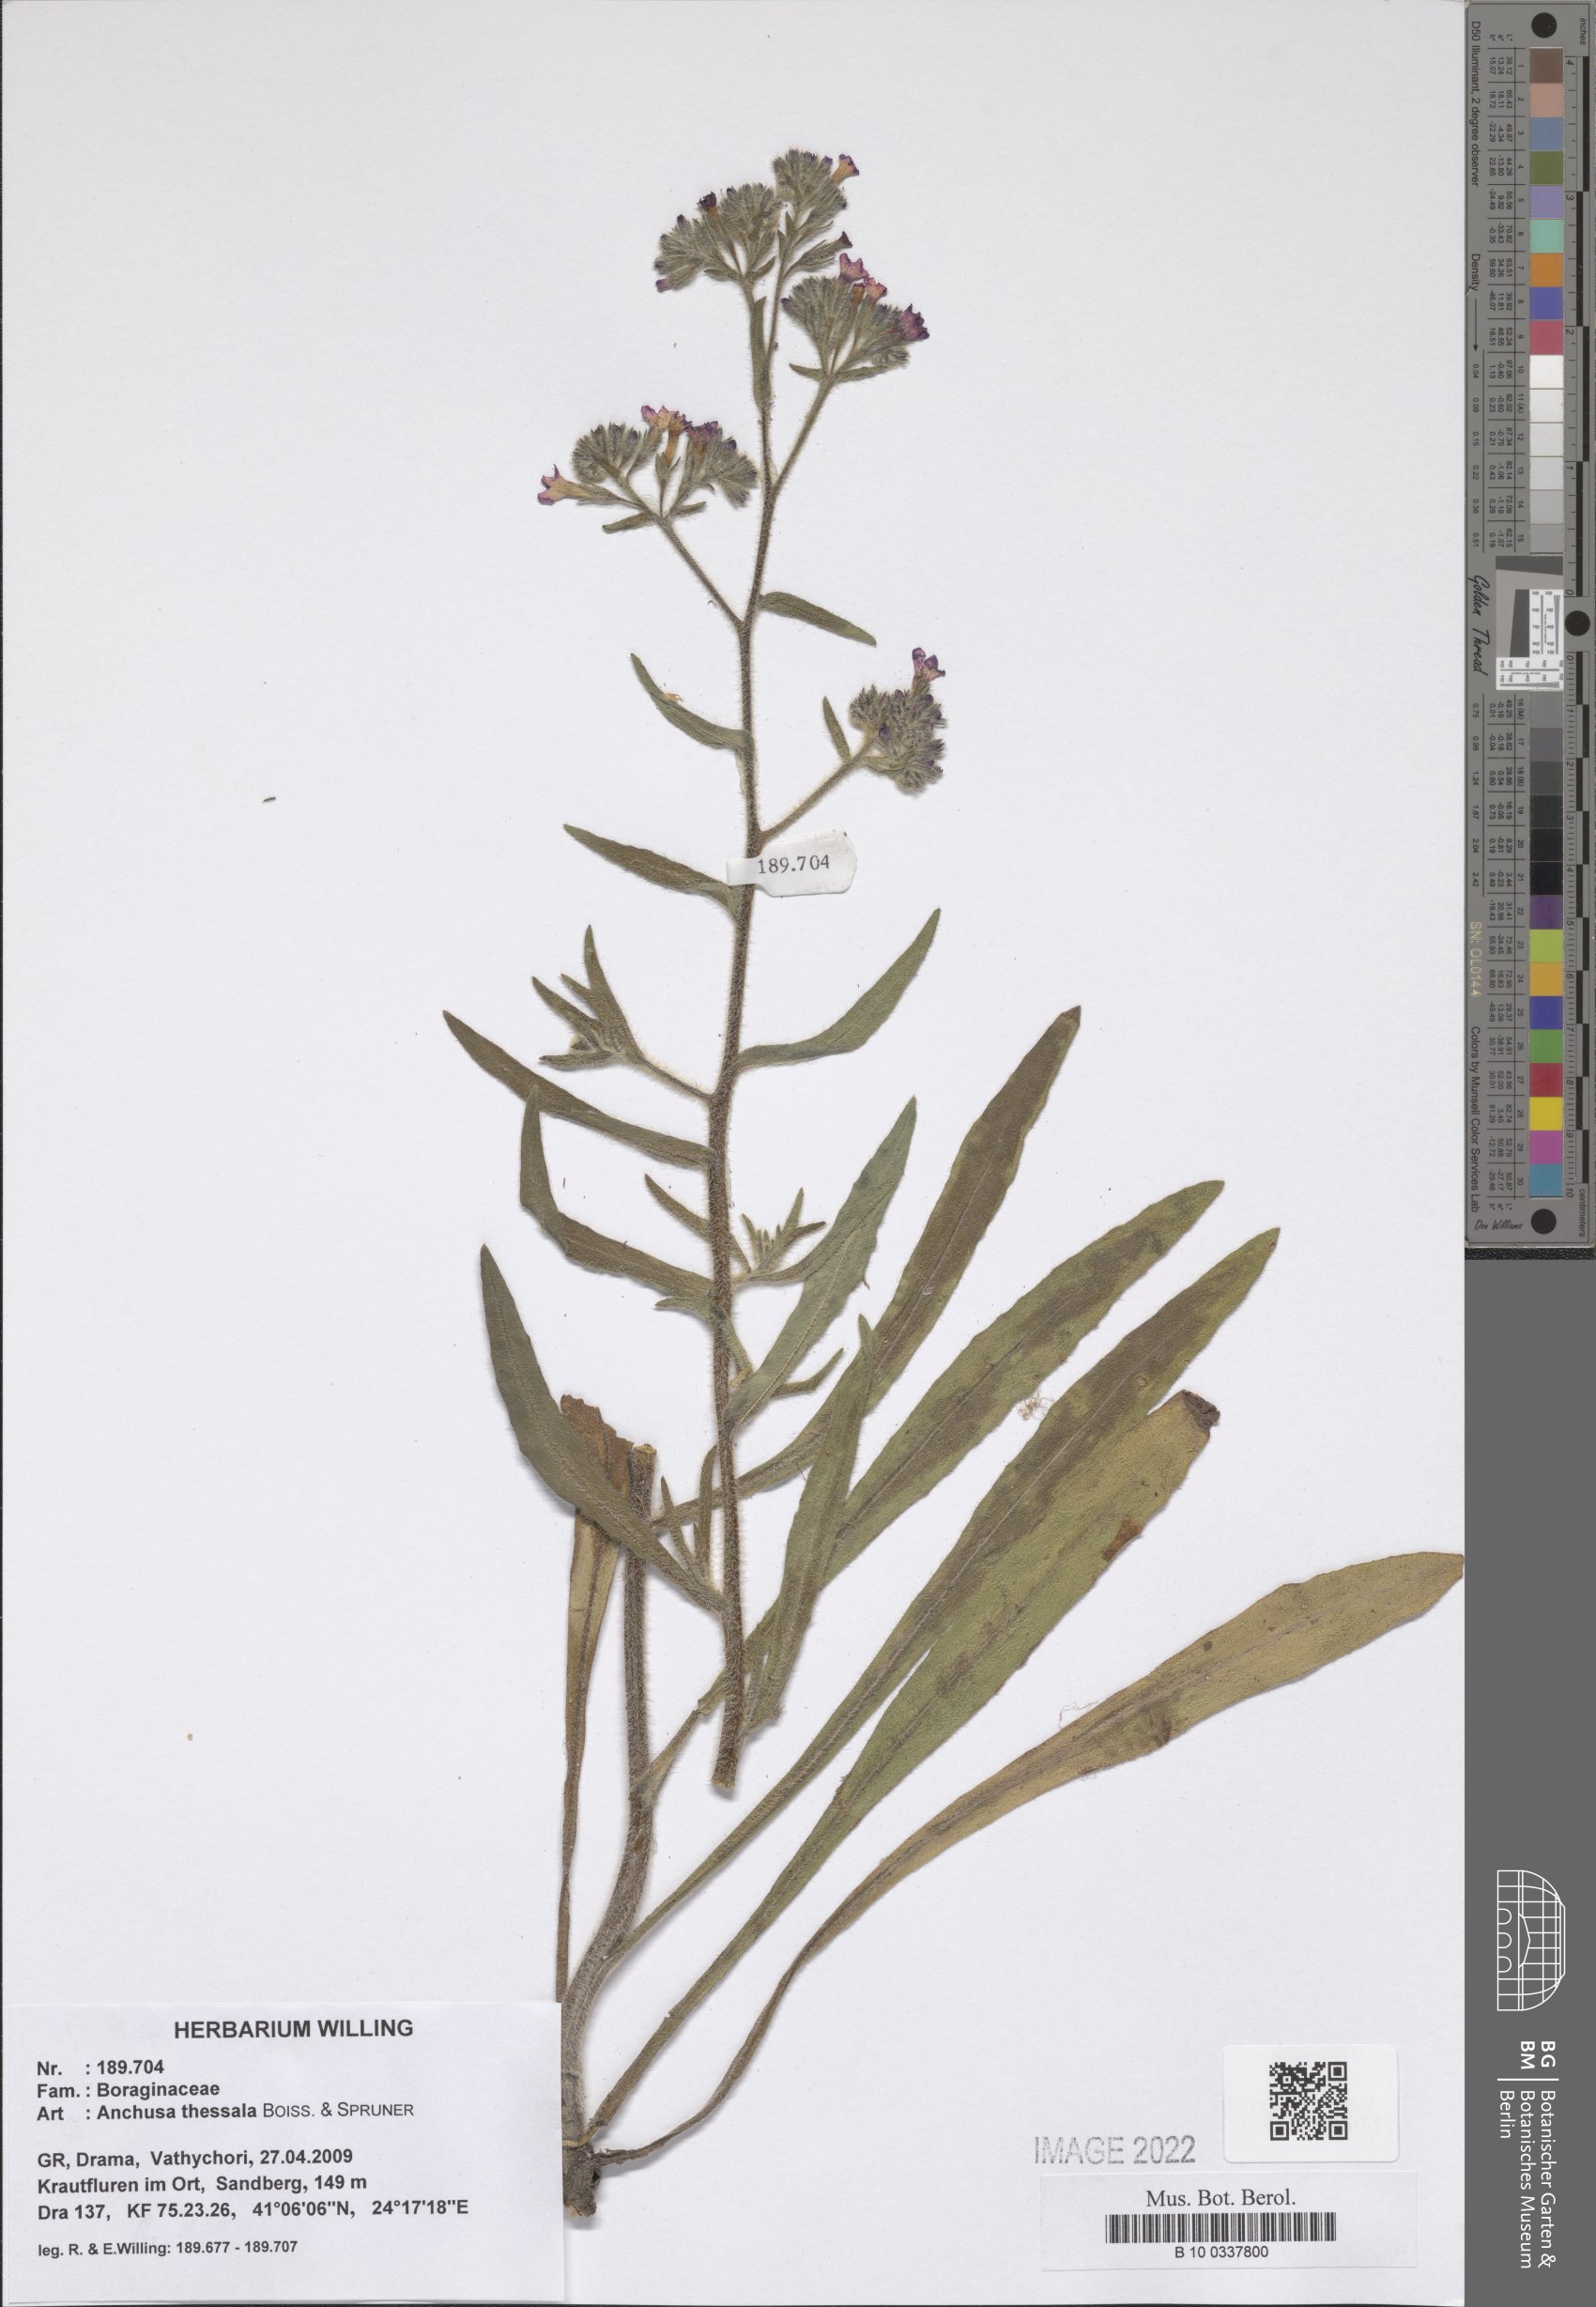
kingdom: Plantae
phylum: Tracheophyta
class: Magnoliopsida
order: Boraginales
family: Boraginaceae
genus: Anchusa
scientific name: Anchusa thessala
